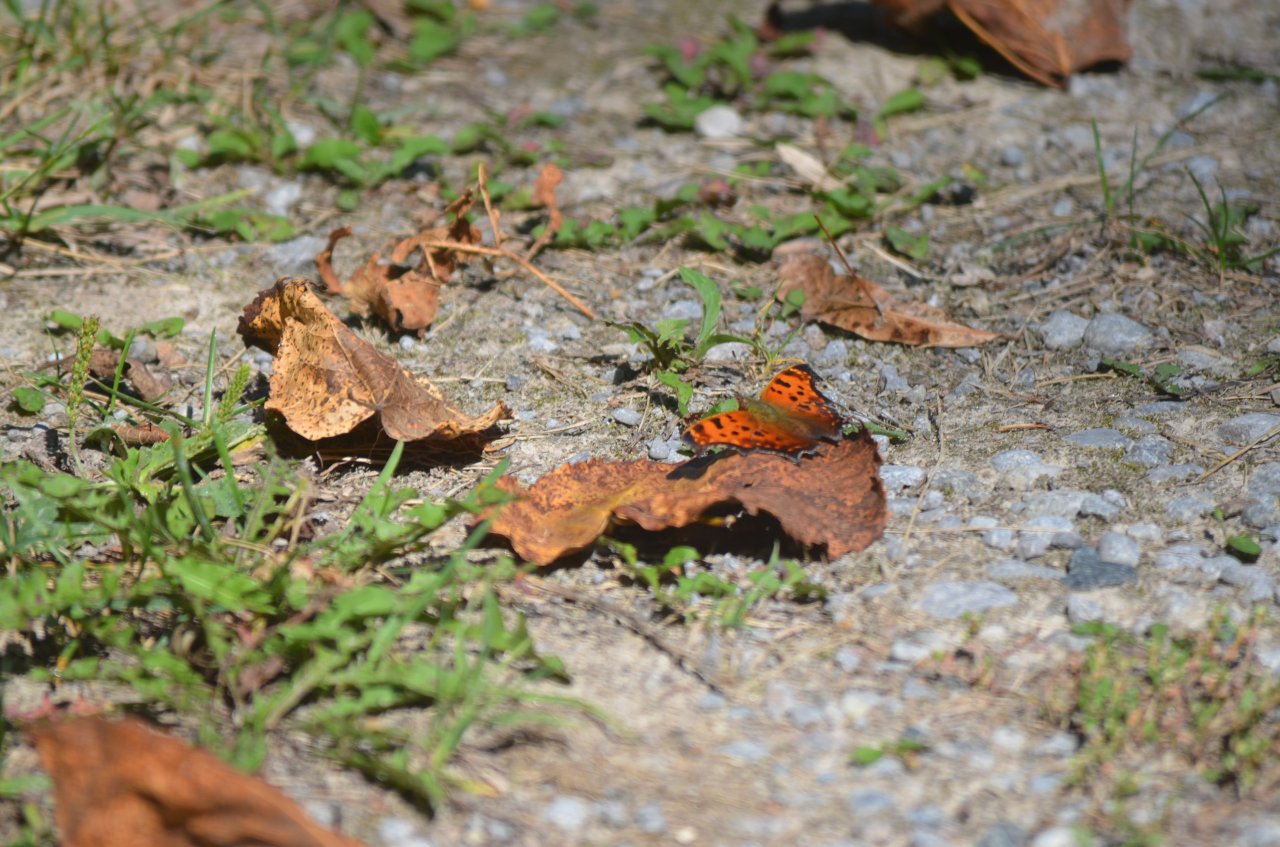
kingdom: Animalia
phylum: Arthropoda
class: Insecta
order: Lepidoptera
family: Nymphalidae
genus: Polygonia
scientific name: Polygonia comma
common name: Eastern Comma
